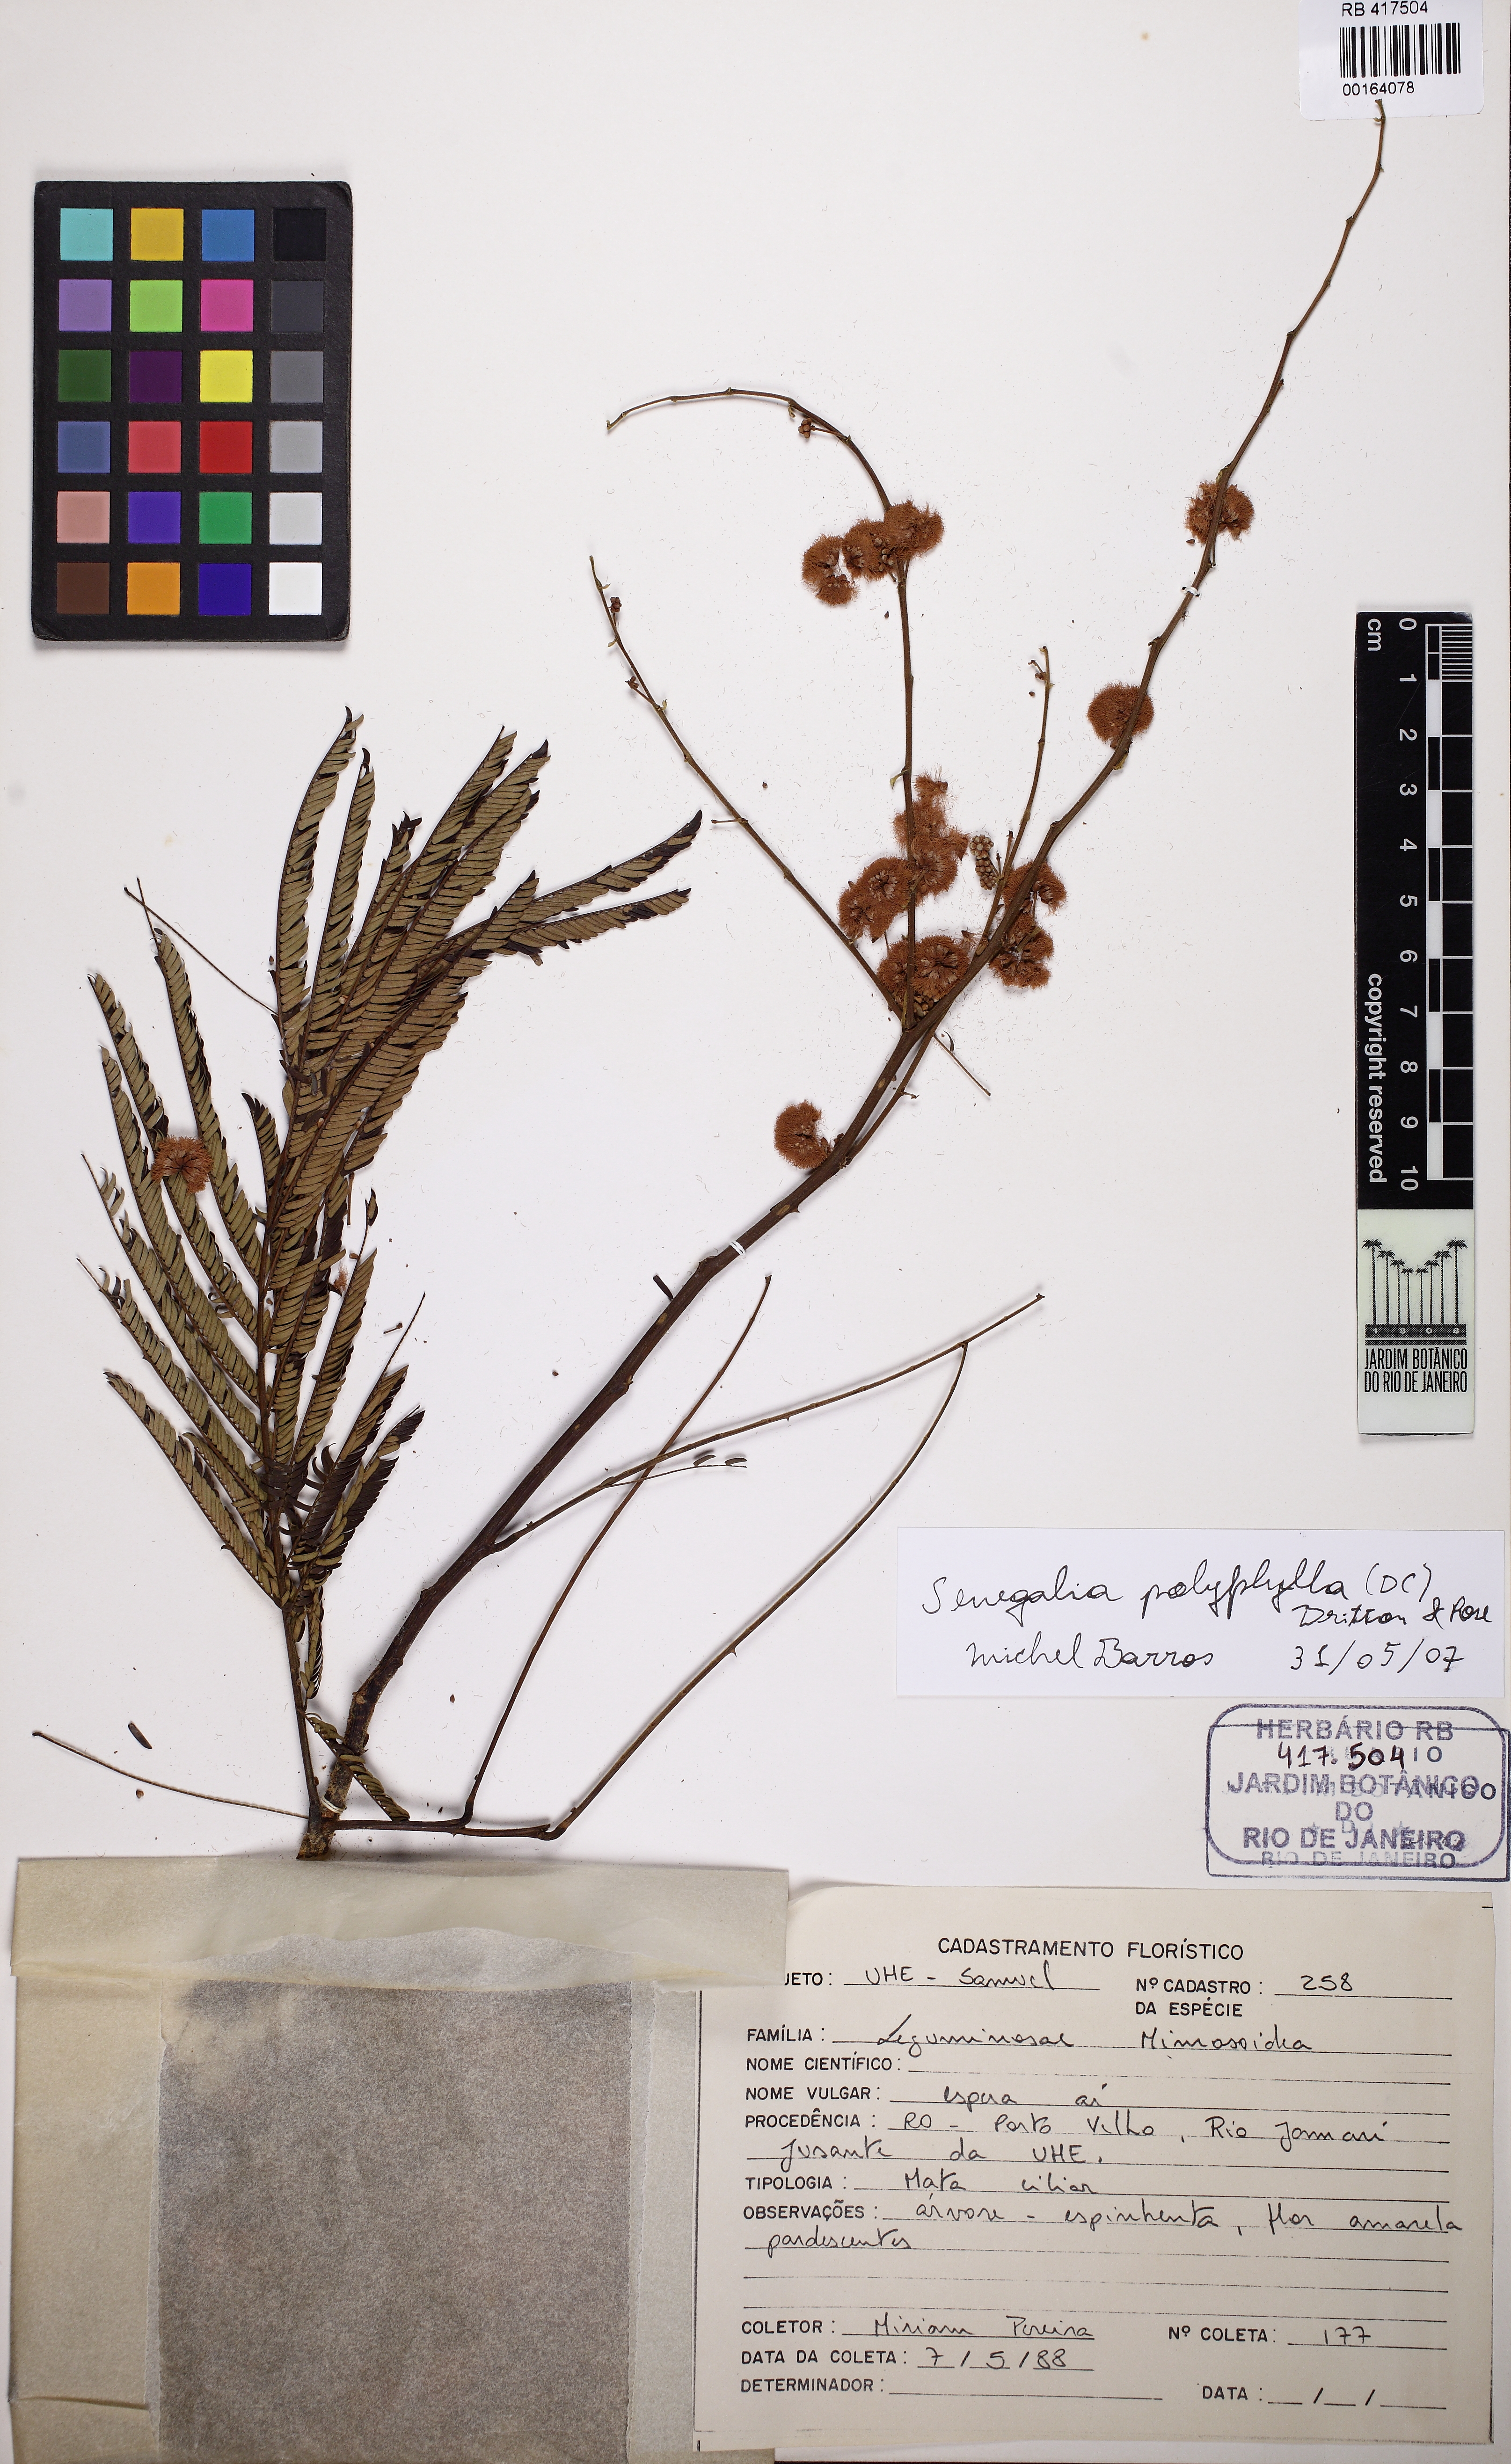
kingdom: Plantae
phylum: Tracheophyta
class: Magnoliopsida
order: Fabales
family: Fabaceae
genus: Senegalia
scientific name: Senegalia polyphylla
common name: White-tamarind
